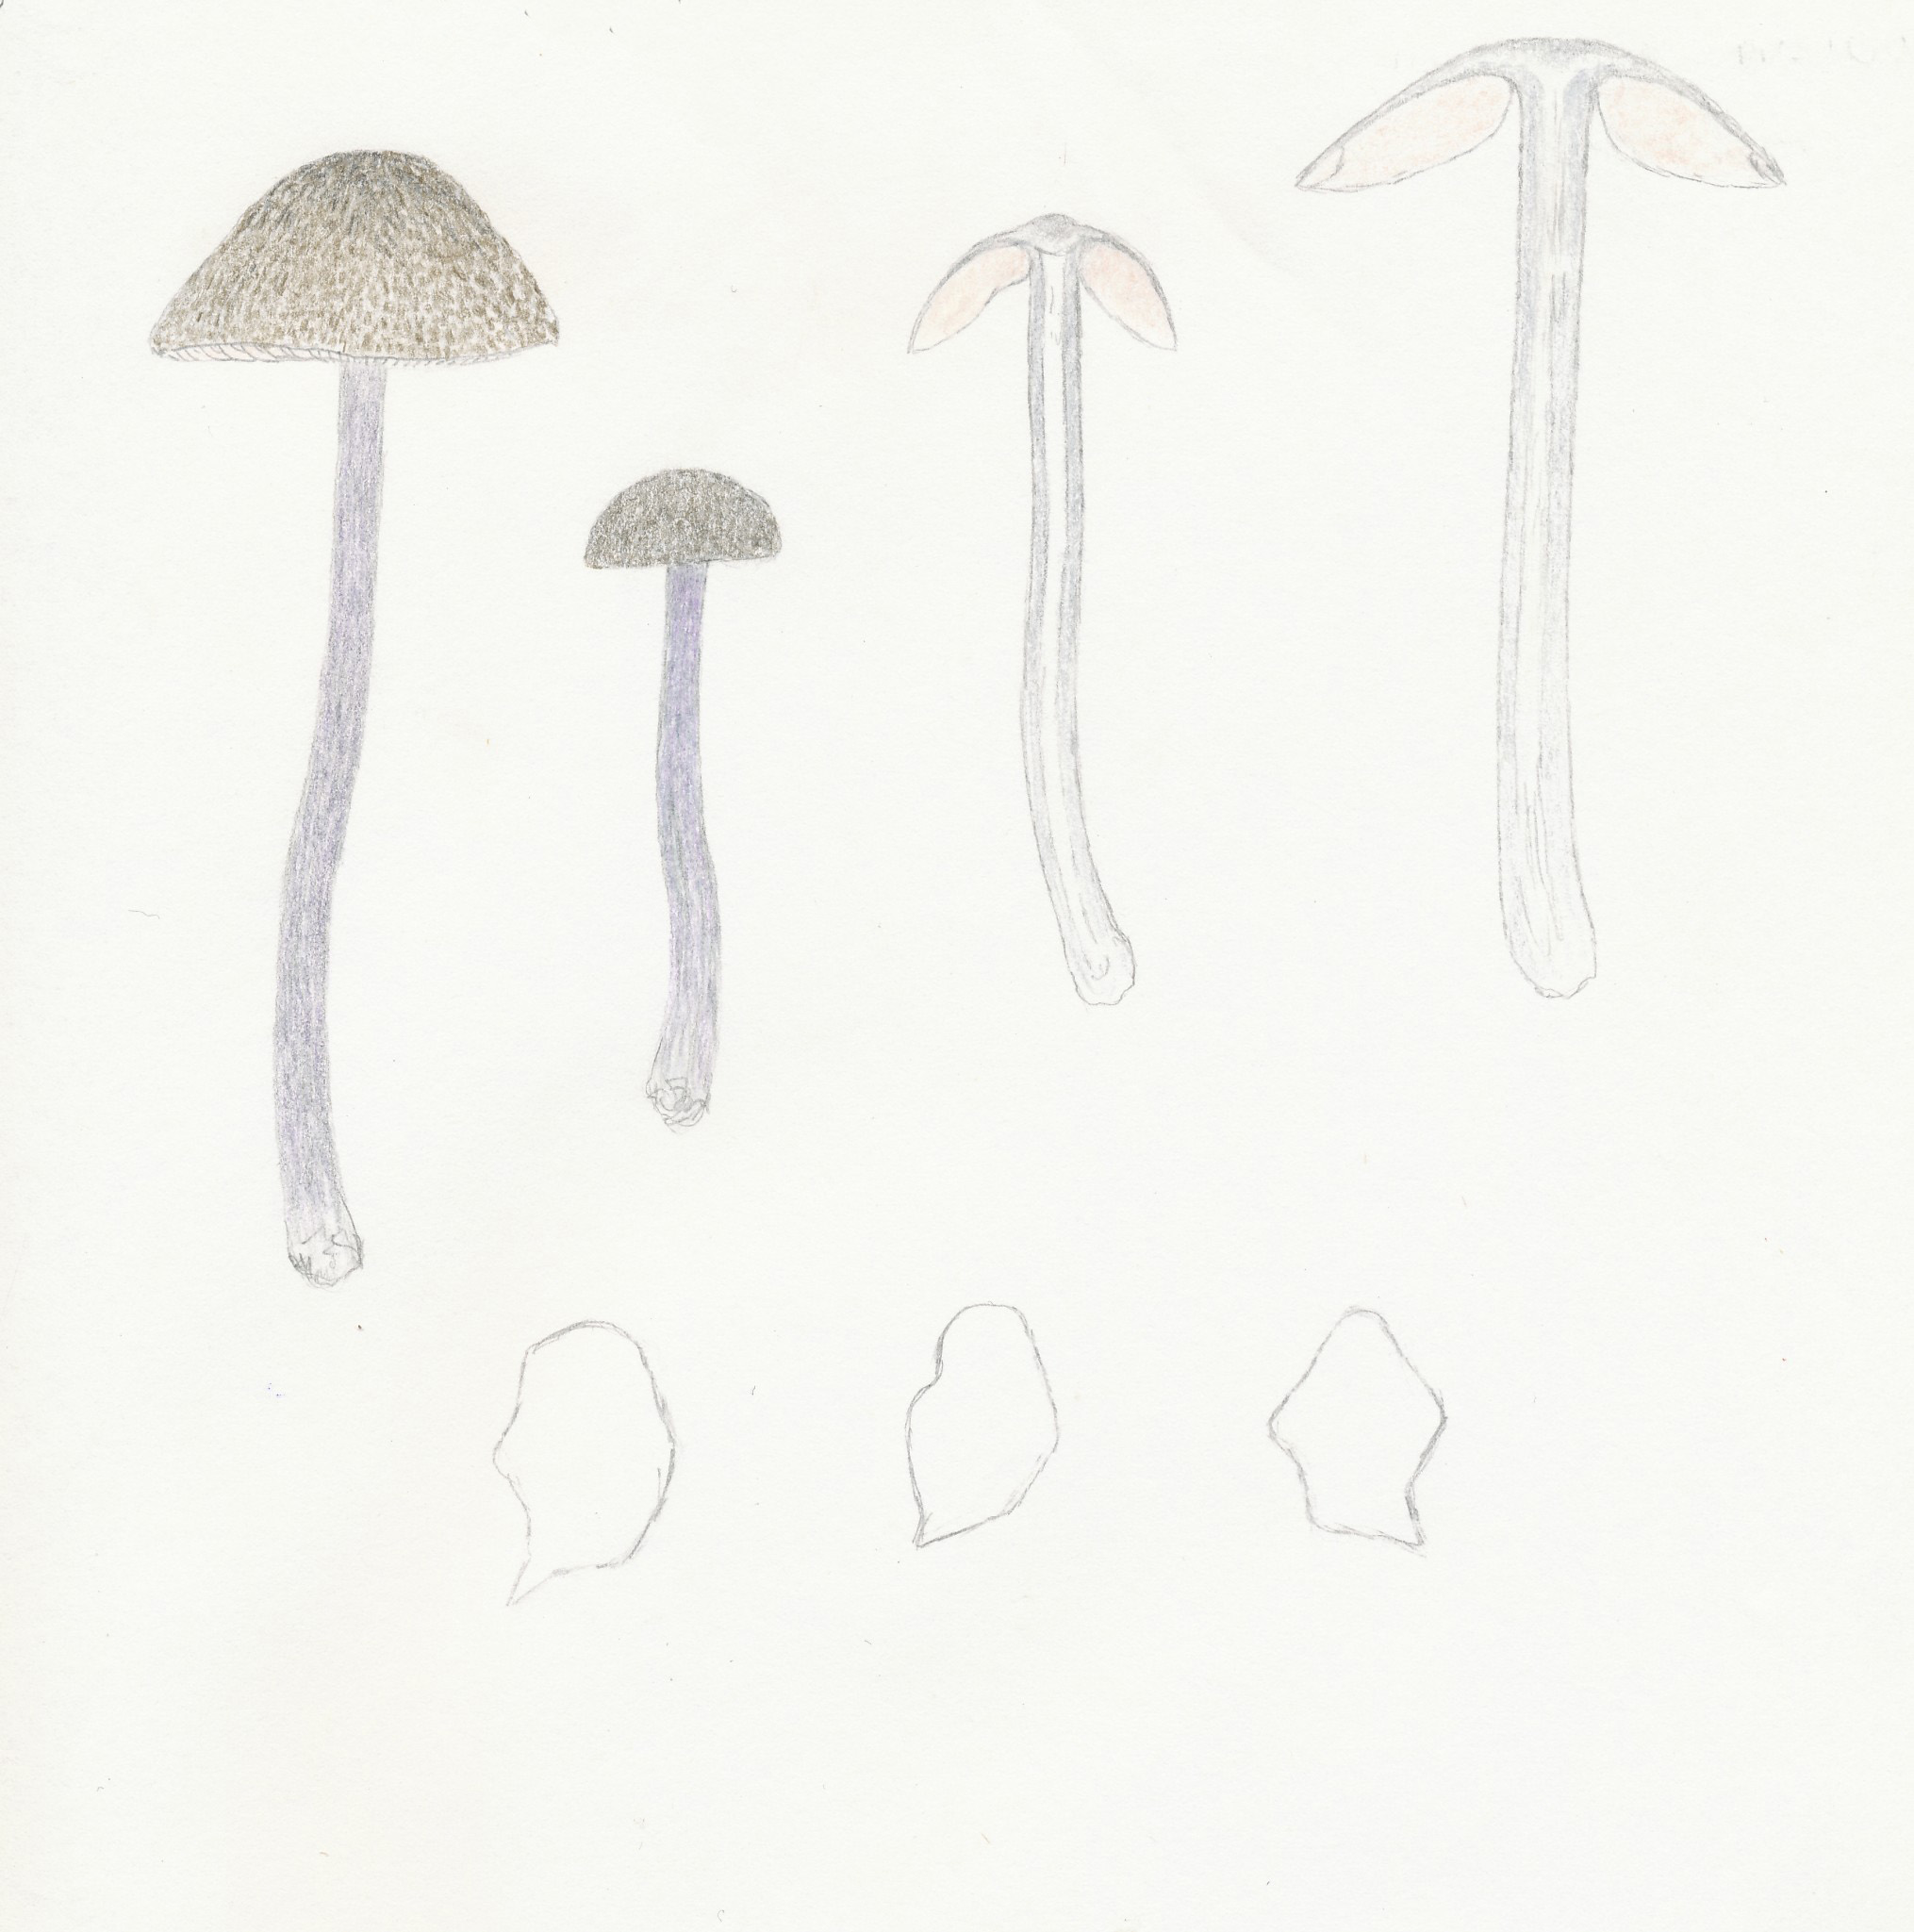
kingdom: Fungi
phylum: Basidiomycota
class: Agaricomycetes
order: Agaricales
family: Entolomataceae
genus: Entoloma
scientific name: Entoloma griseocyaneum
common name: gråblå rødblad
